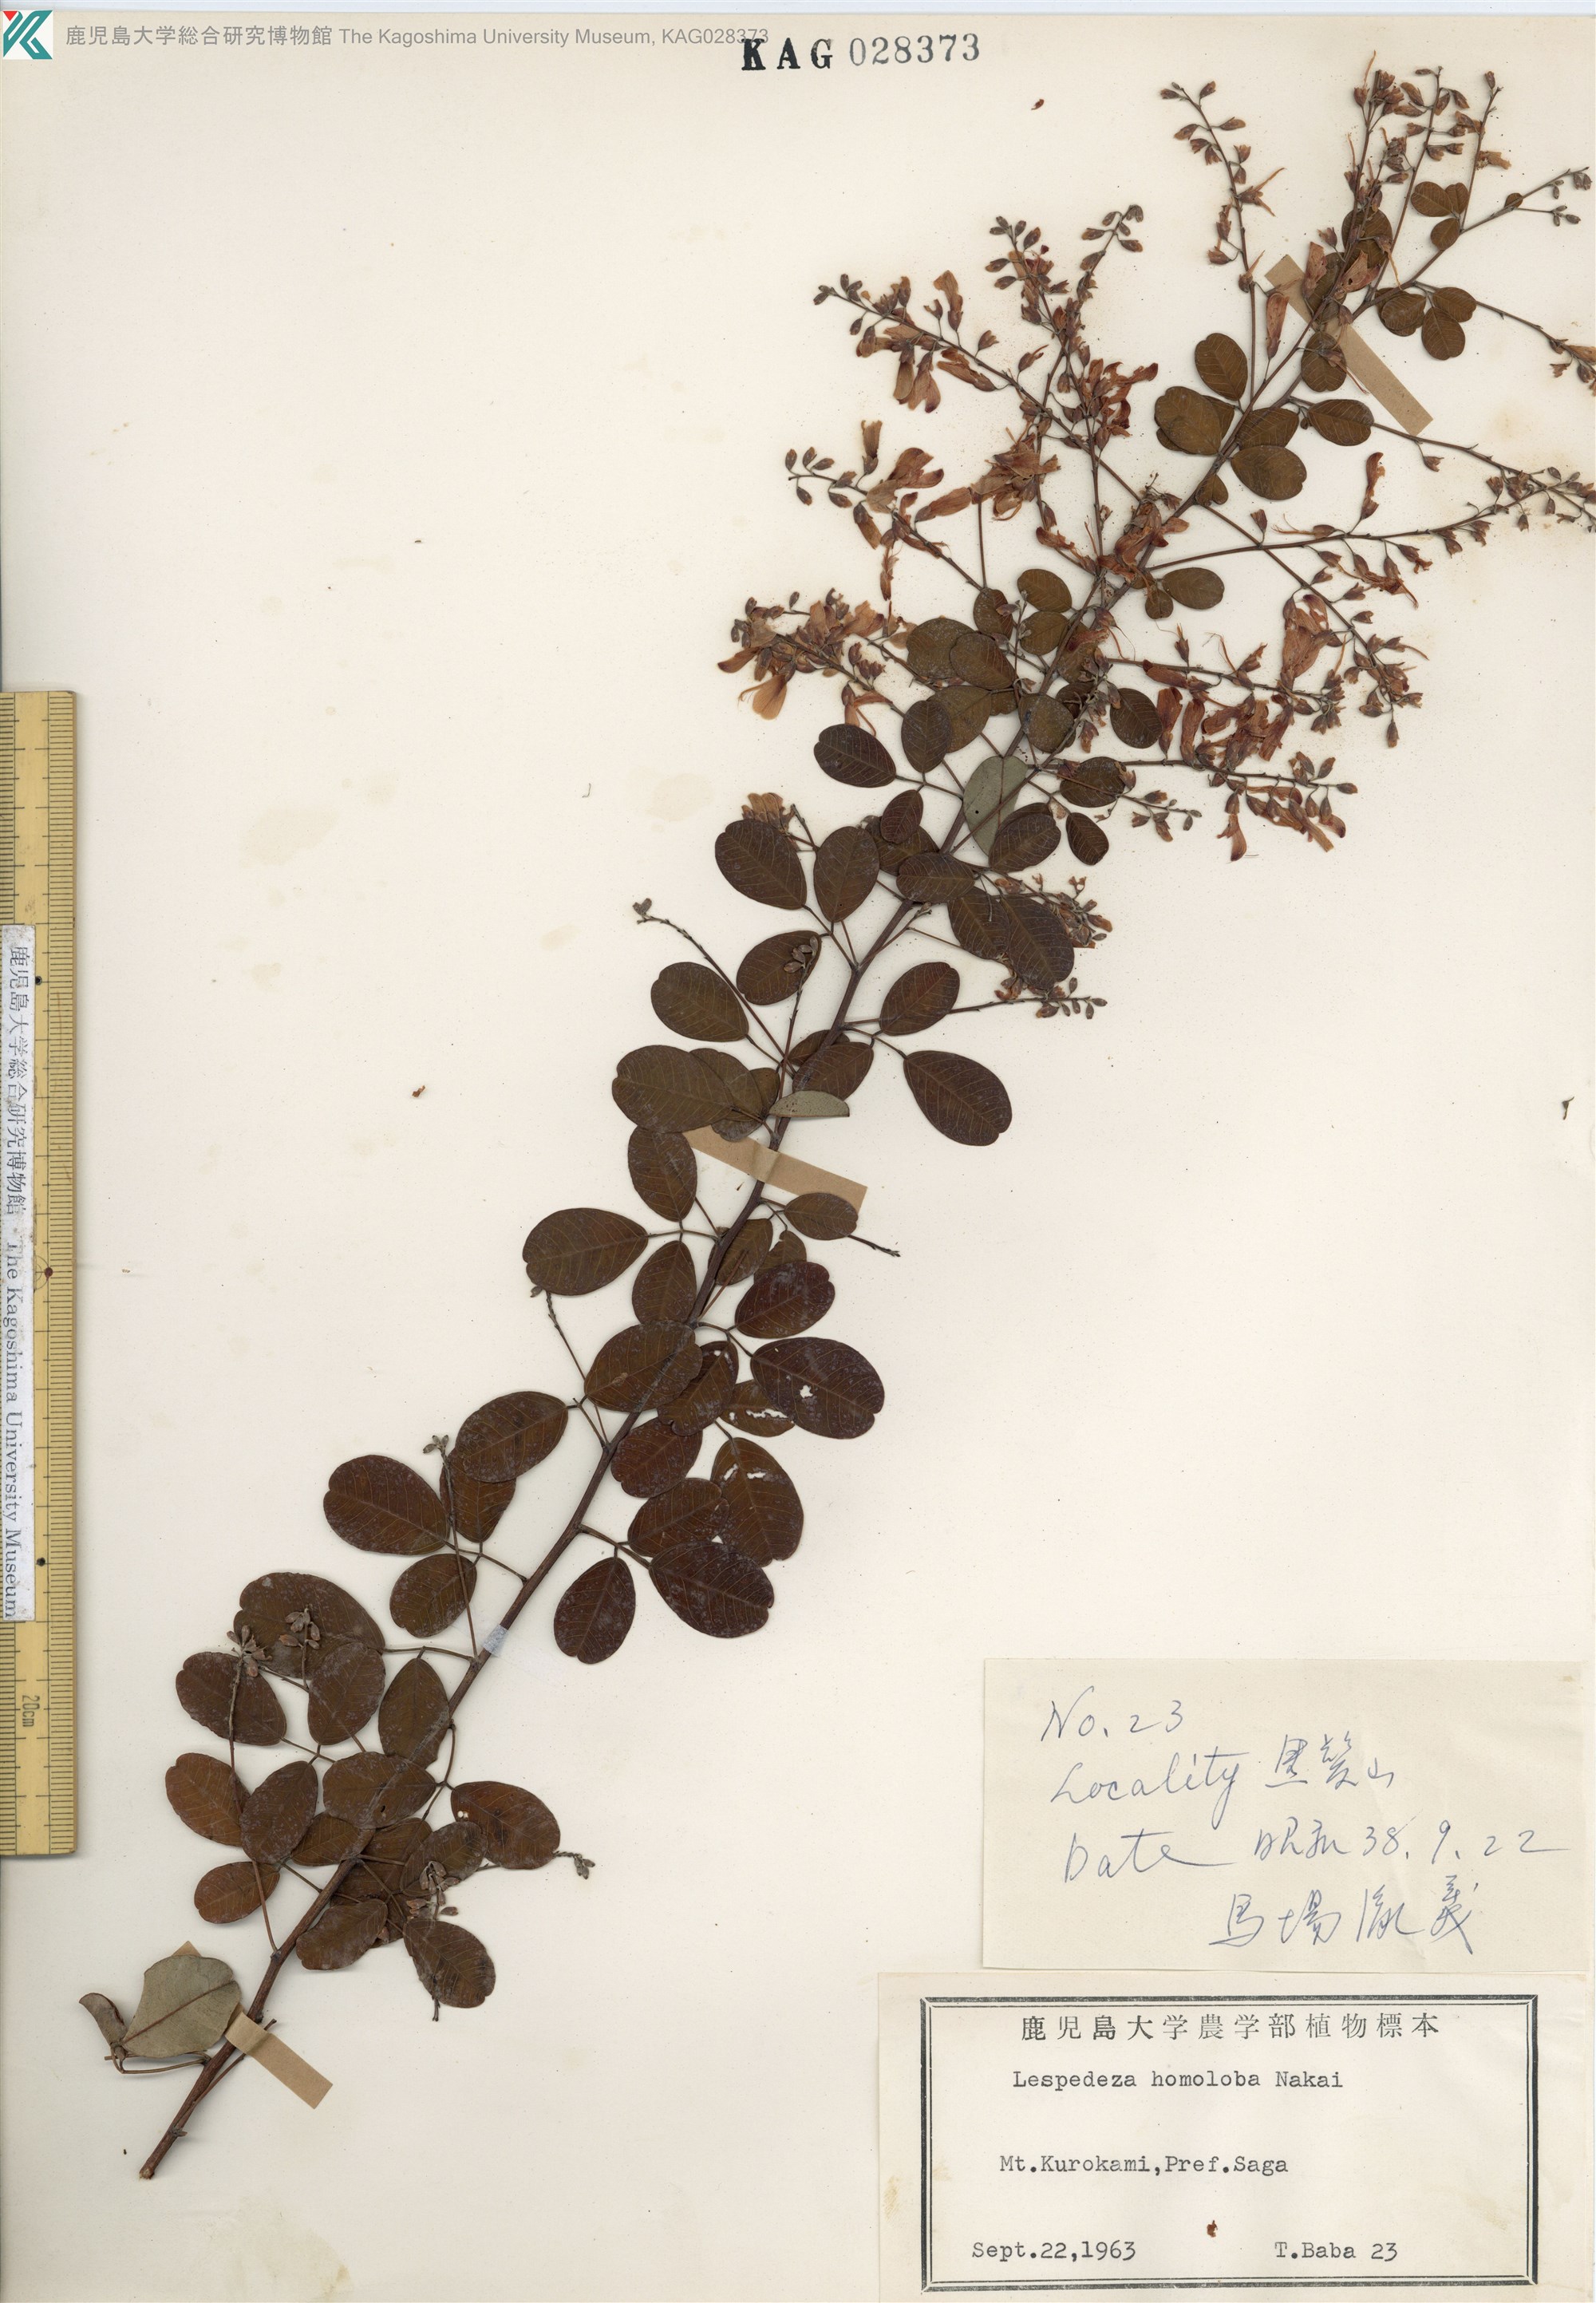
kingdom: Plantae
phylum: Tracheophyta
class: Magnoliopsida
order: Fabales
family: Fabaceae
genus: Lespedeza
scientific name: Lespedeza homoloba
